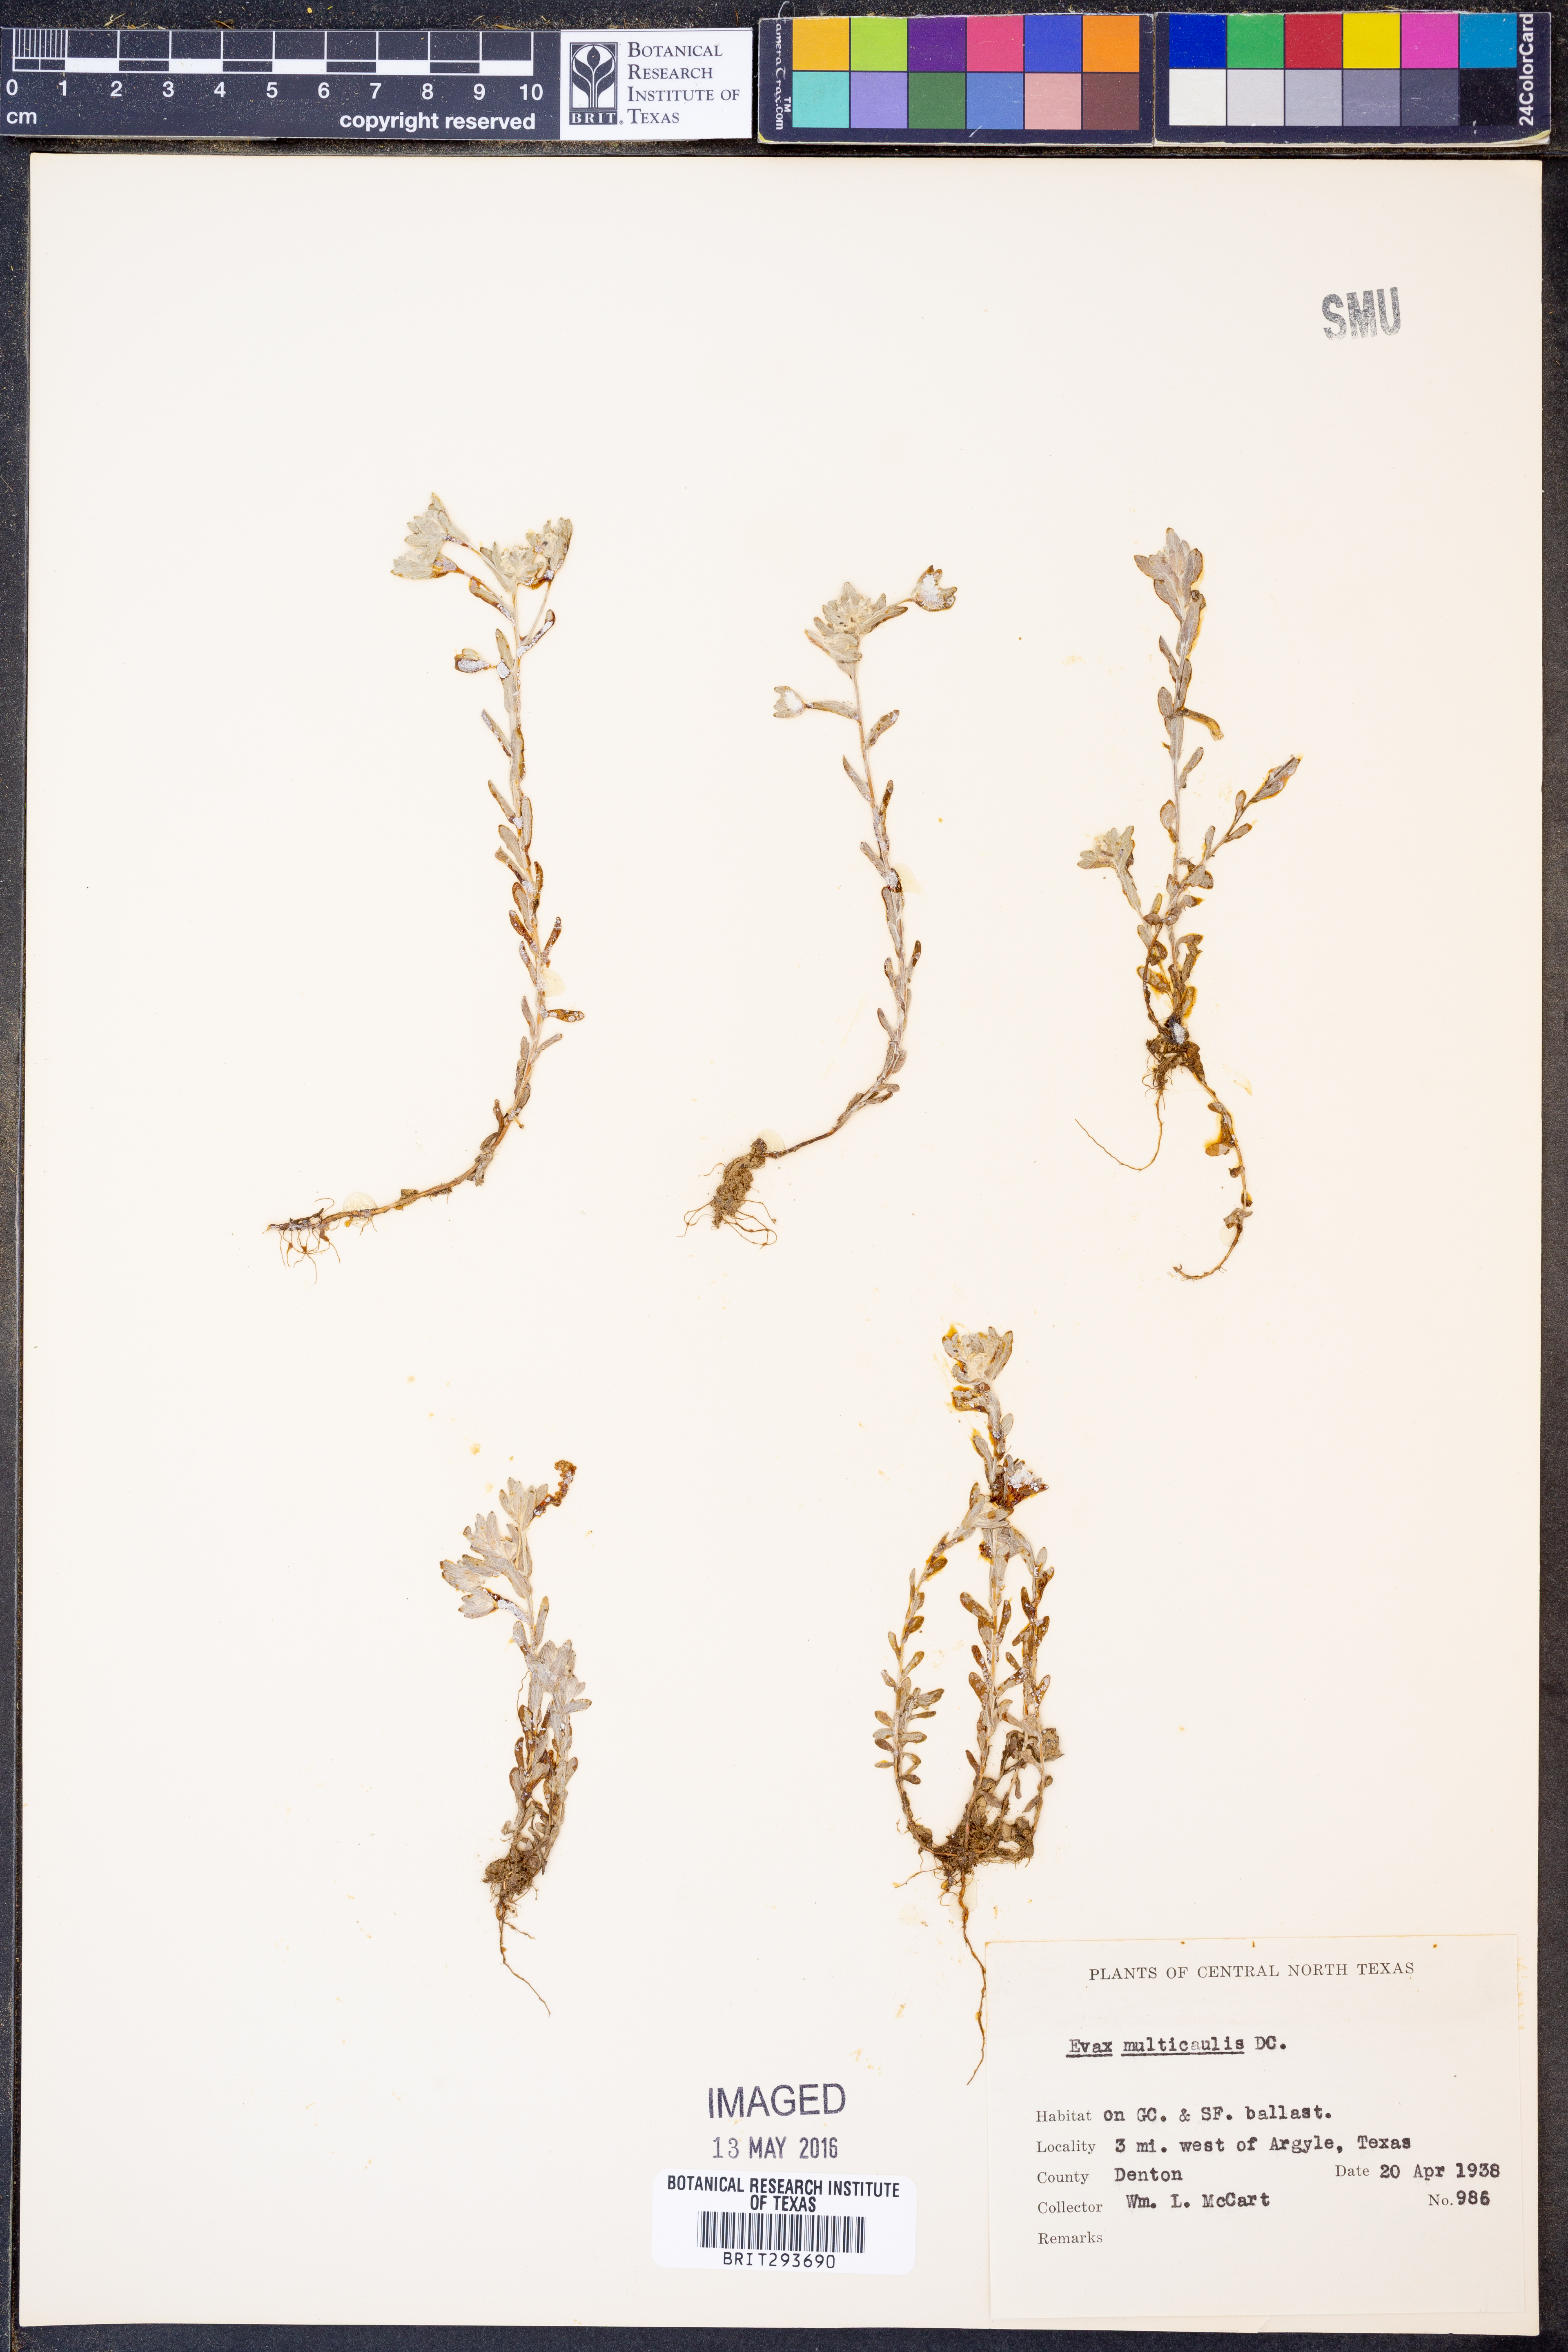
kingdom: Plantae
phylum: Tracheophyta
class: Magnoliopsida
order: Asterales
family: Asteraceae
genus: Diaperia
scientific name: Diaperia verna
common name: Many-stem rabbit-tobacco
